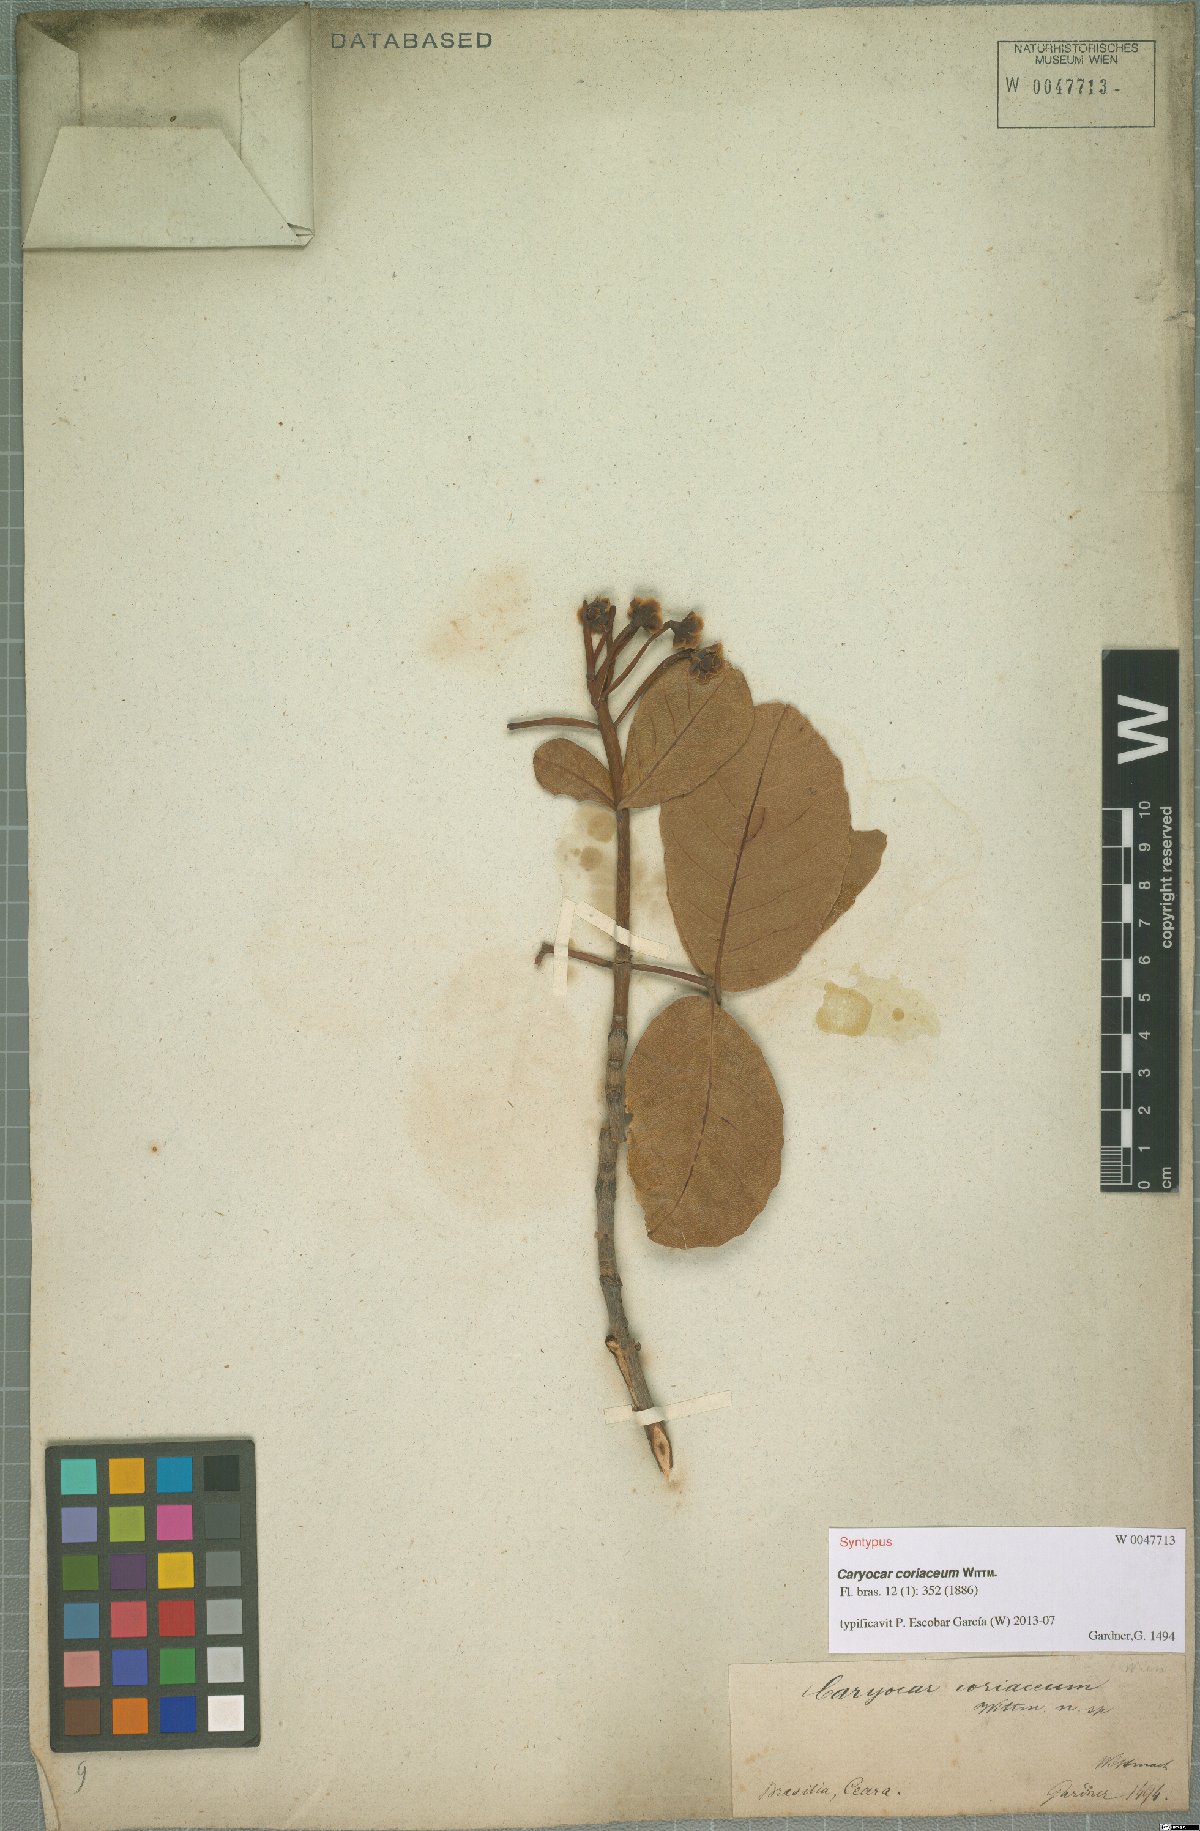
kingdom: Plantae
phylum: Tracheophyta
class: Magnoliopsida
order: Malpighiales
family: Caryocaraceae
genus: Caryocar
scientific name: Caryocar coriaceum
